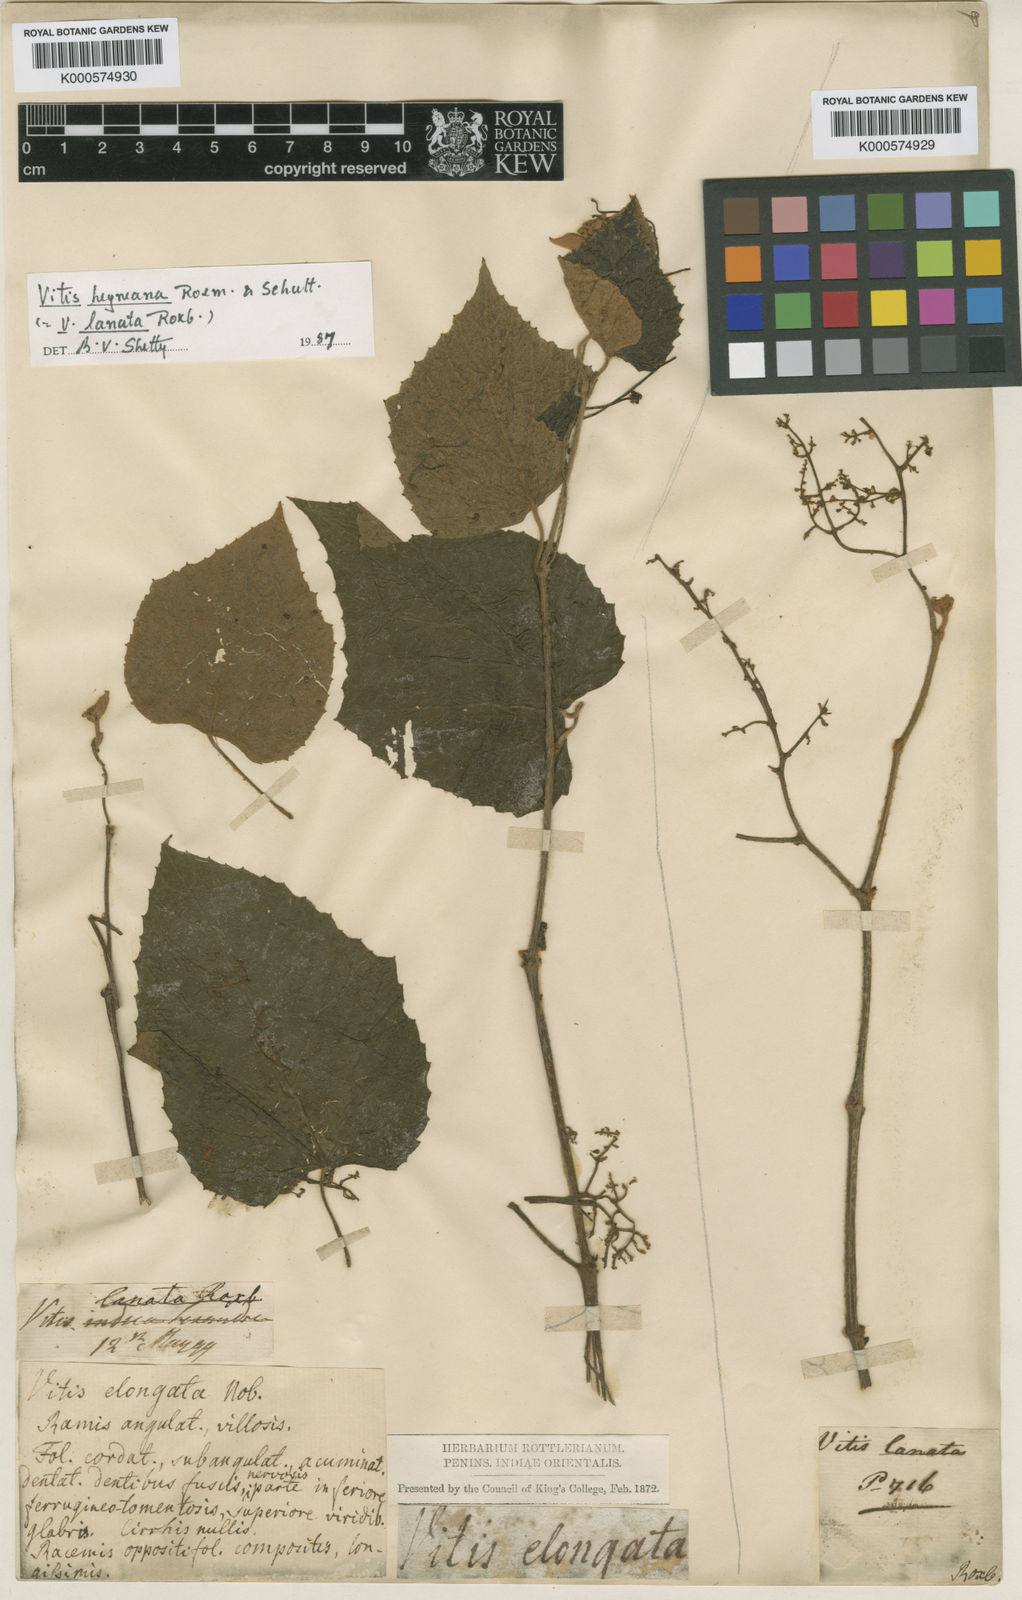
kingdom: Plantae
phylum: Tracheophyta
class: Magnoliopsida
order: Vitales
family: Vitaceae
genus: Vitis
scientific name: Vitis heyneana
